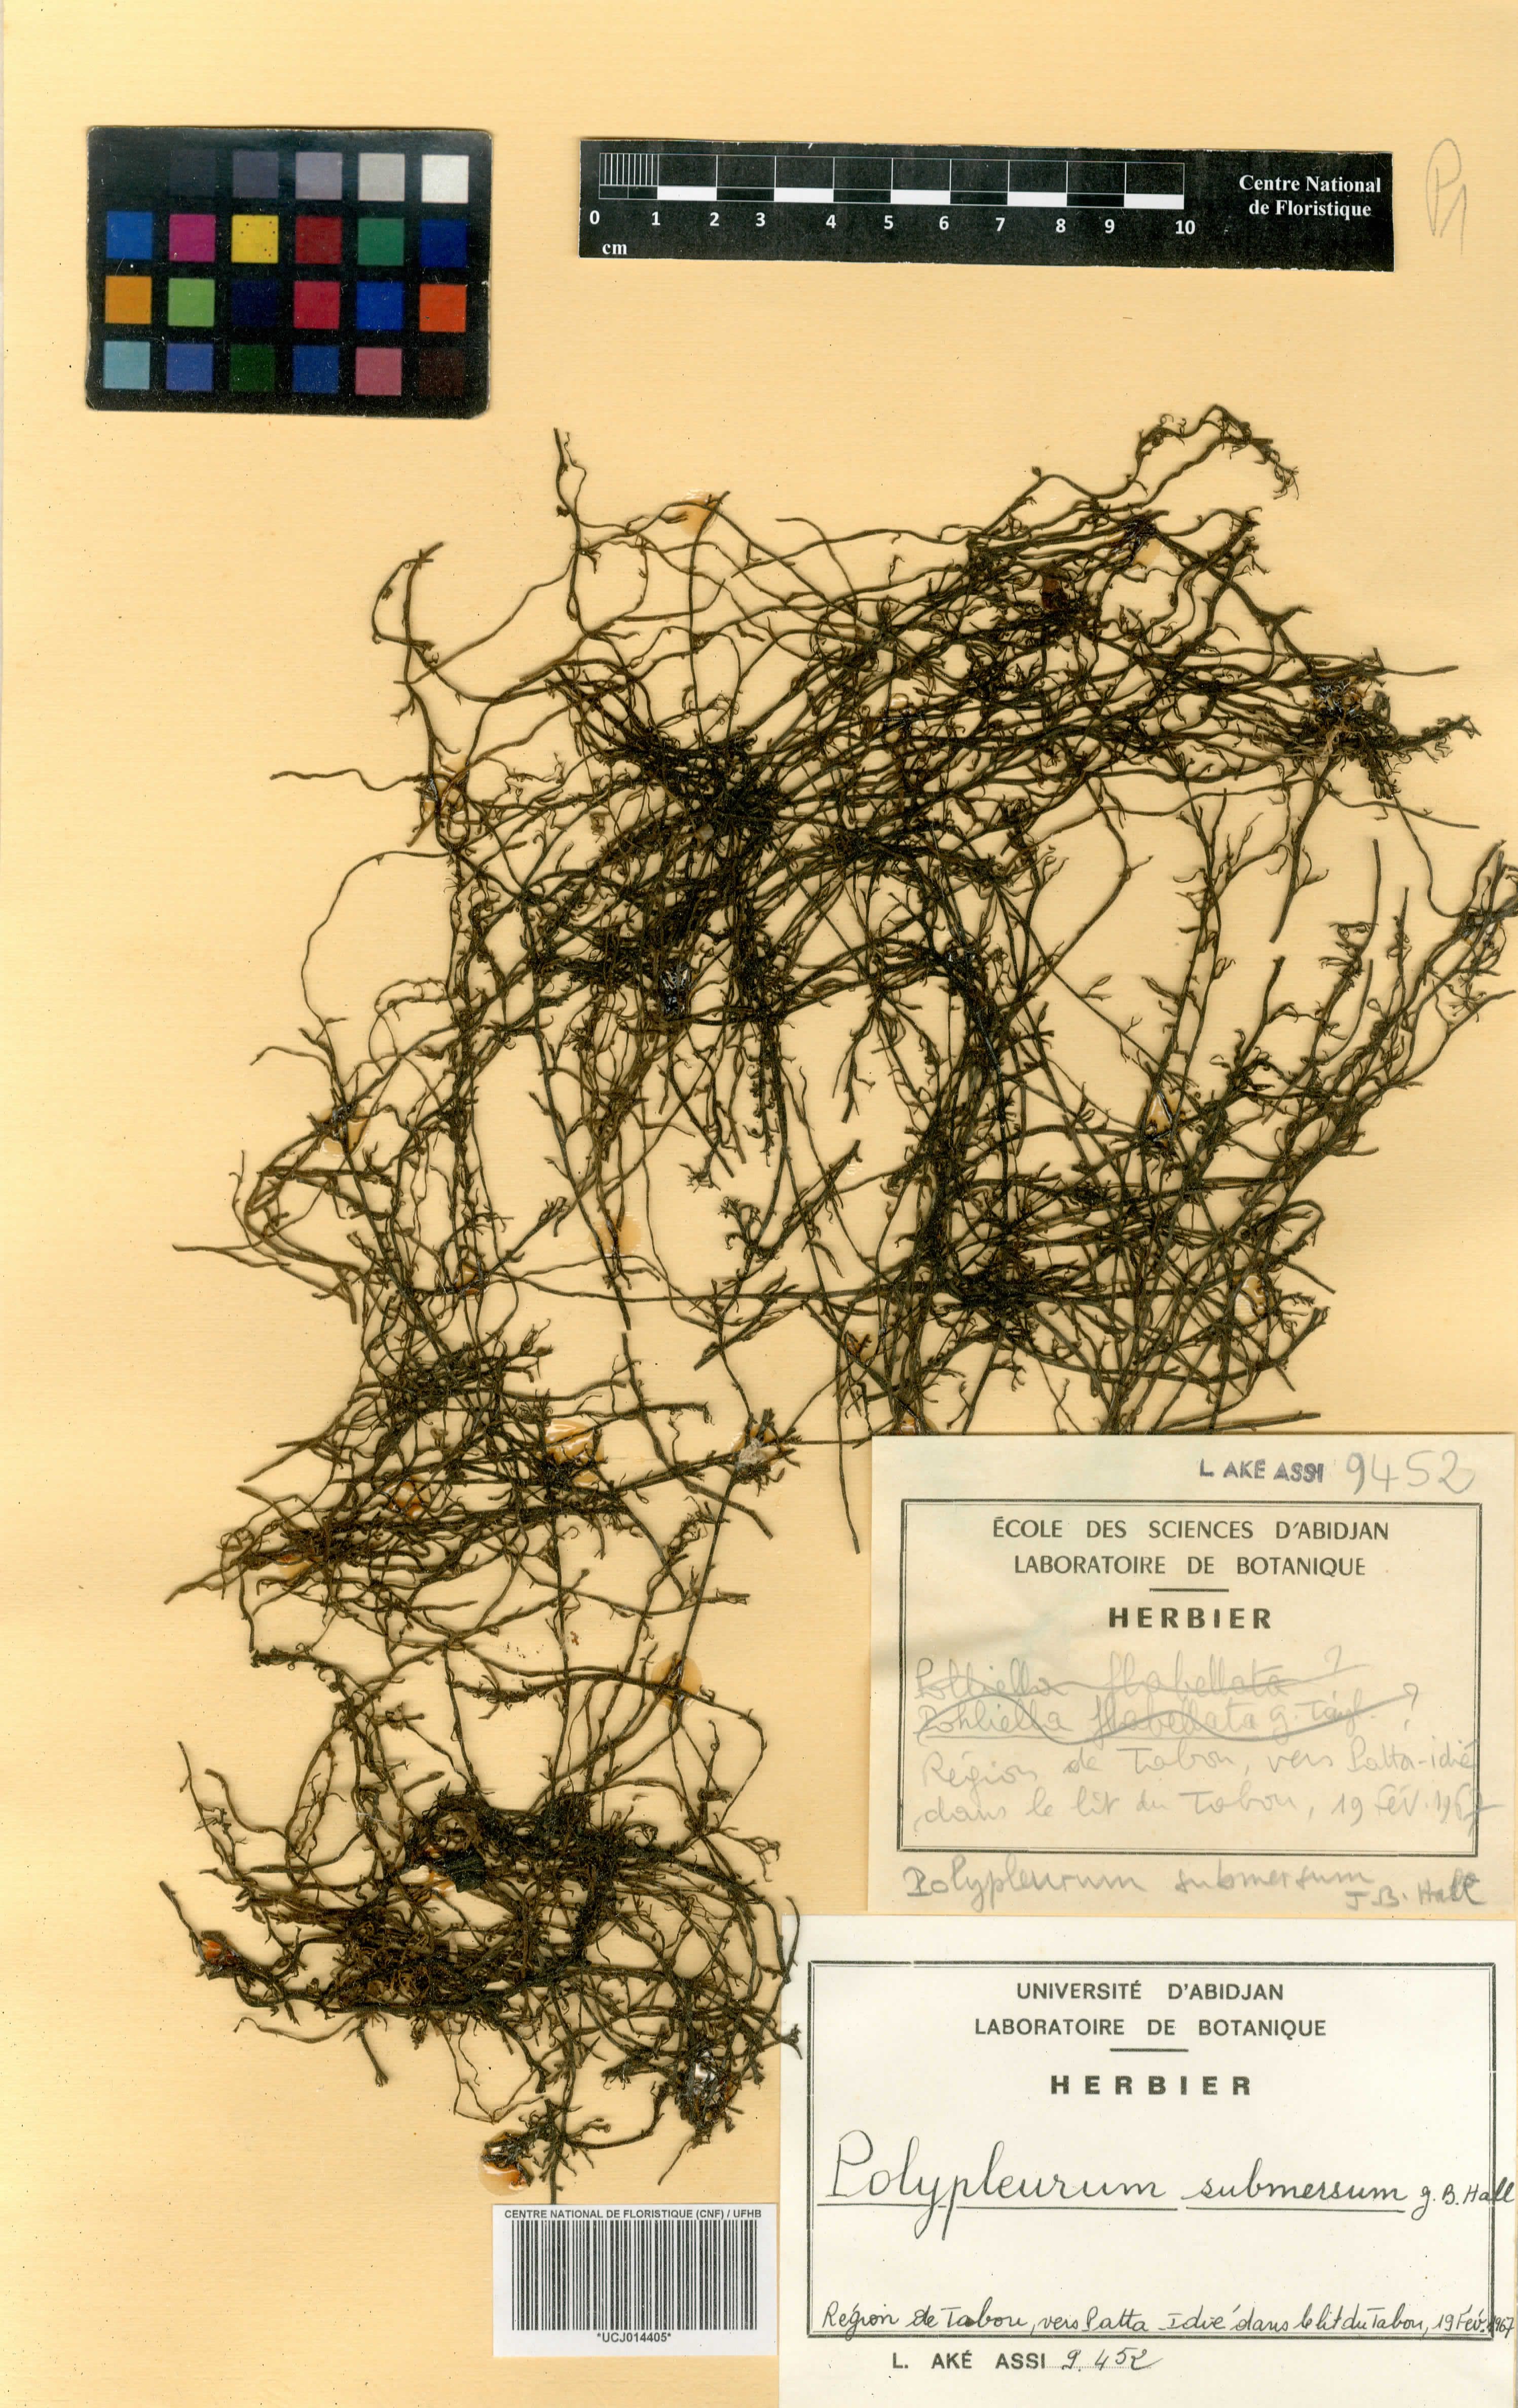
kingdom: Plantae
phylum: Tracheophyta
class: Magnoliopsida
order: Malpighiales
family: Podostemaceae
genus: Saxicolella
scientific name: Saxicolella submersa
